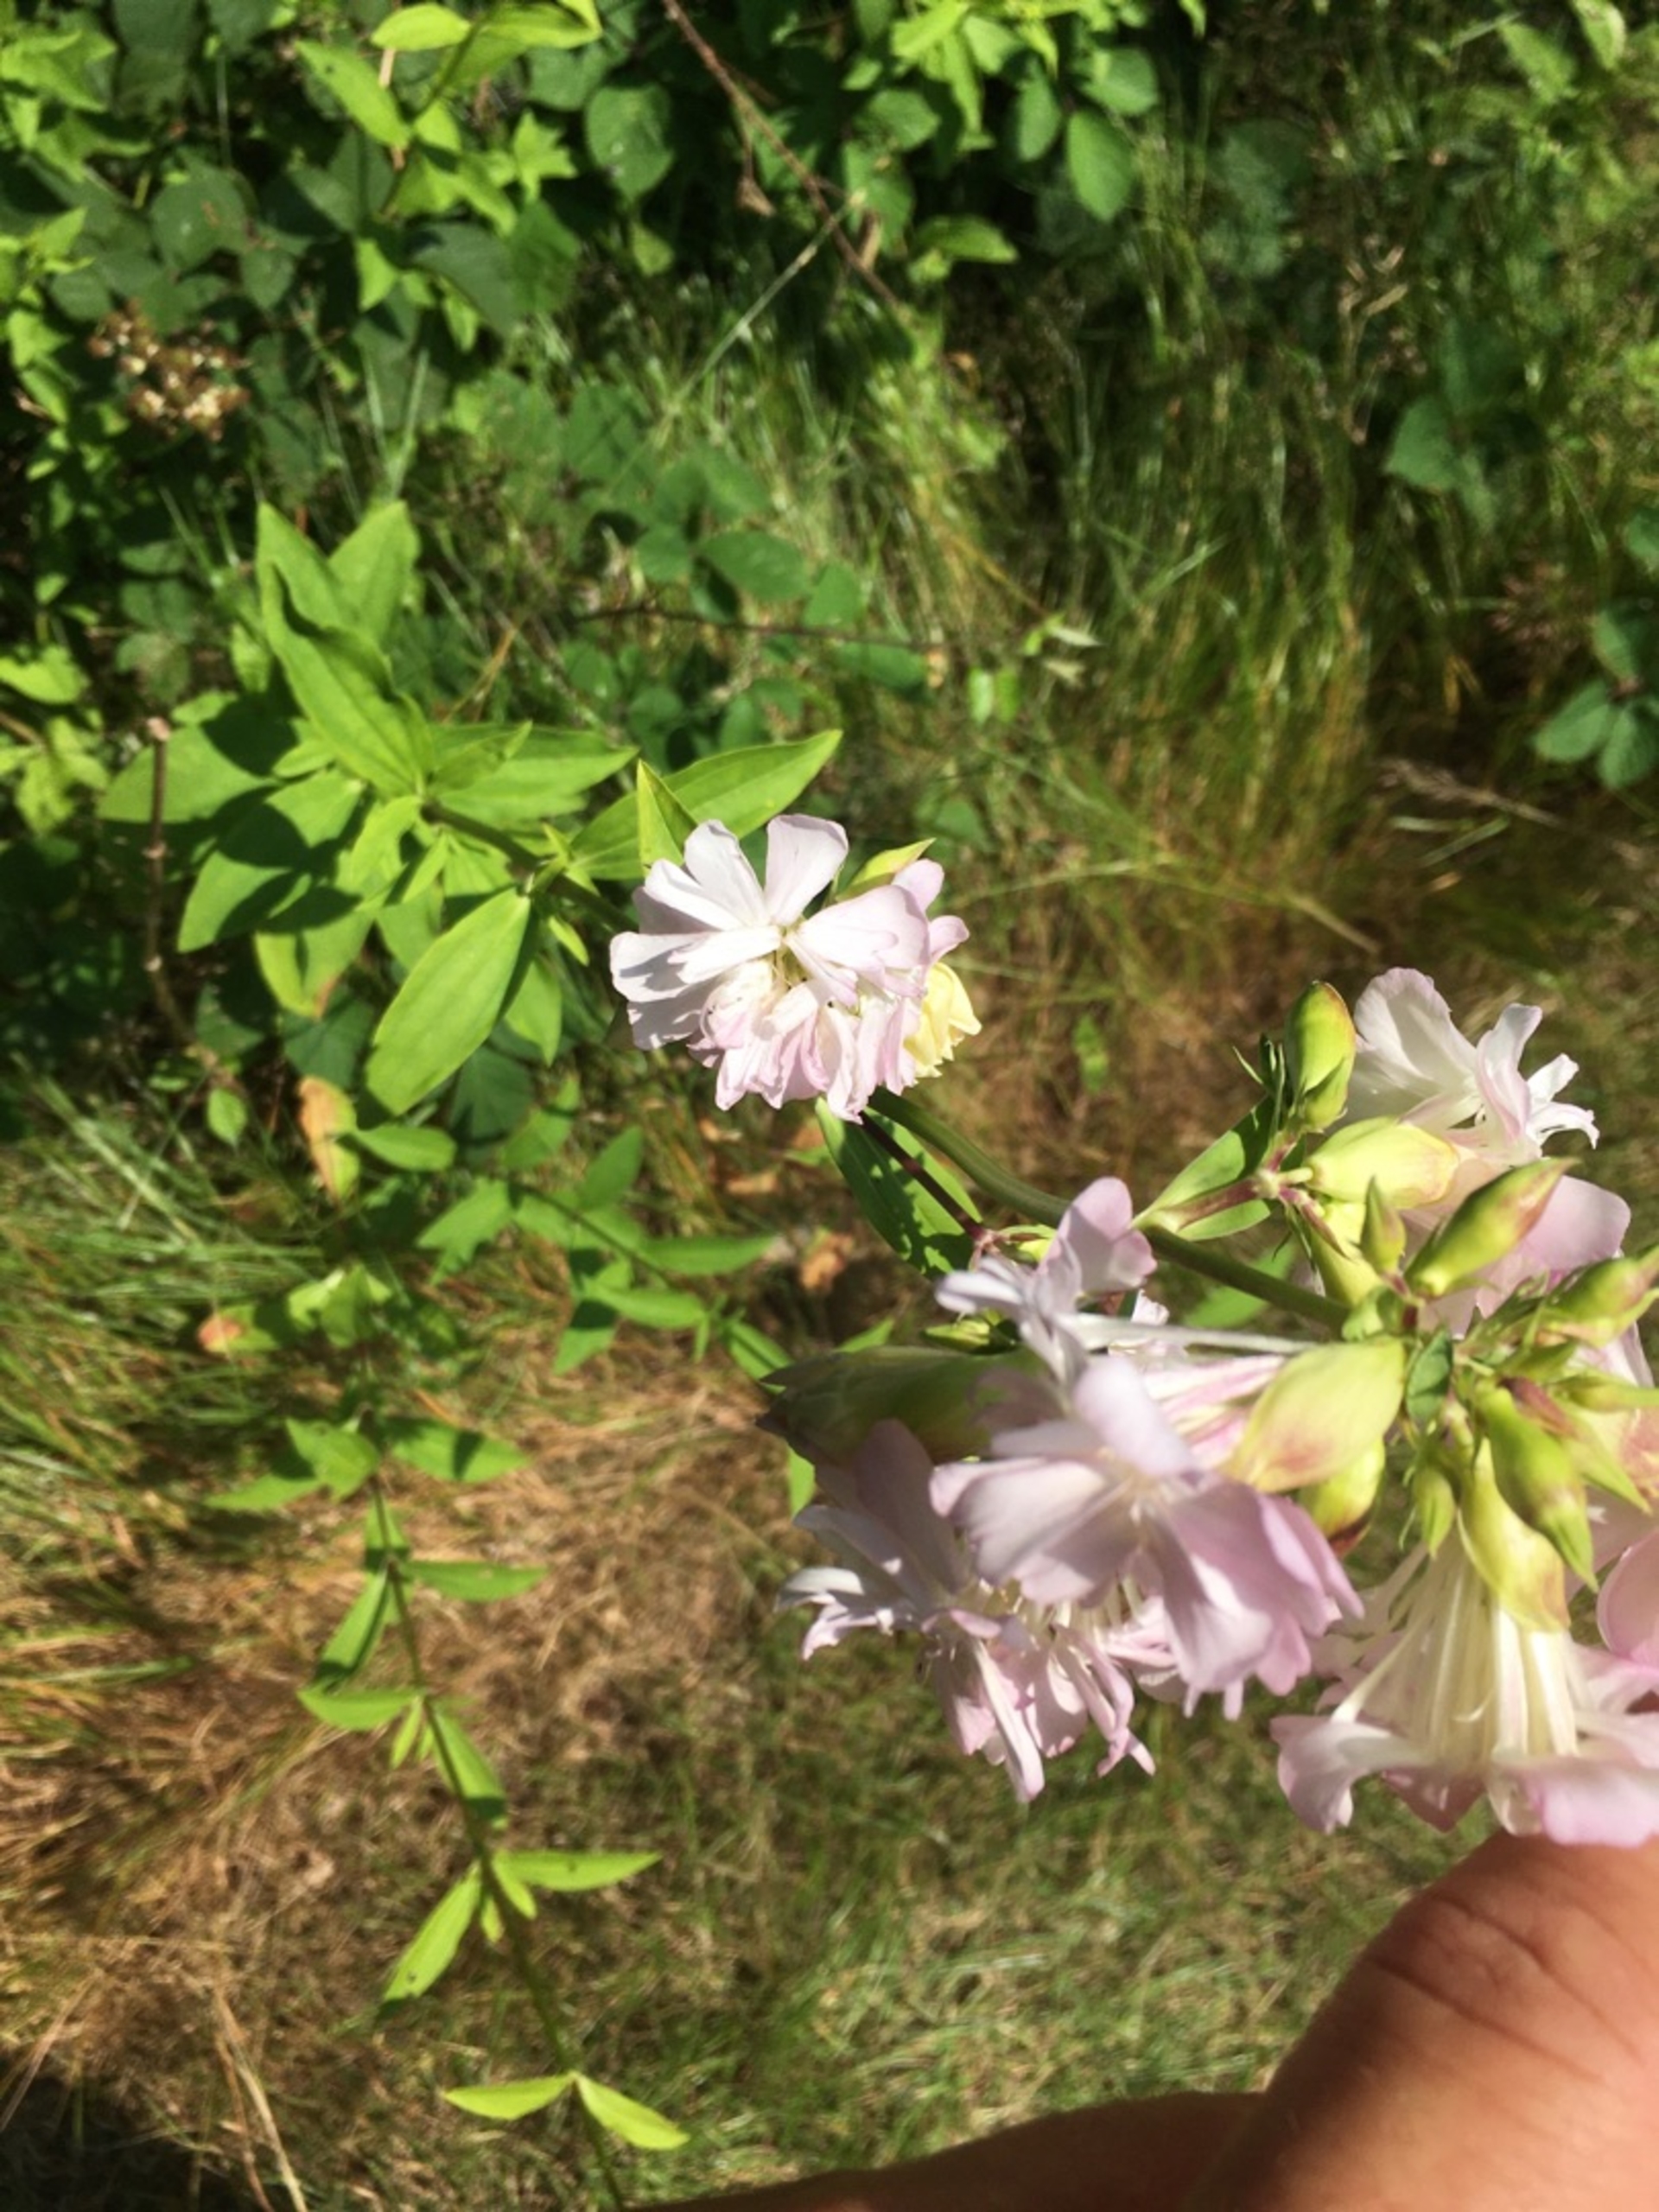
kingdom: Plantae
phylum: Tracheophyta
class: Magnoliopsida
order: Caryophyllales
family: Caryophyllaceae
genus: Saponaria
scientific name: Saponaria officinalis
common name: Sæbeurt
